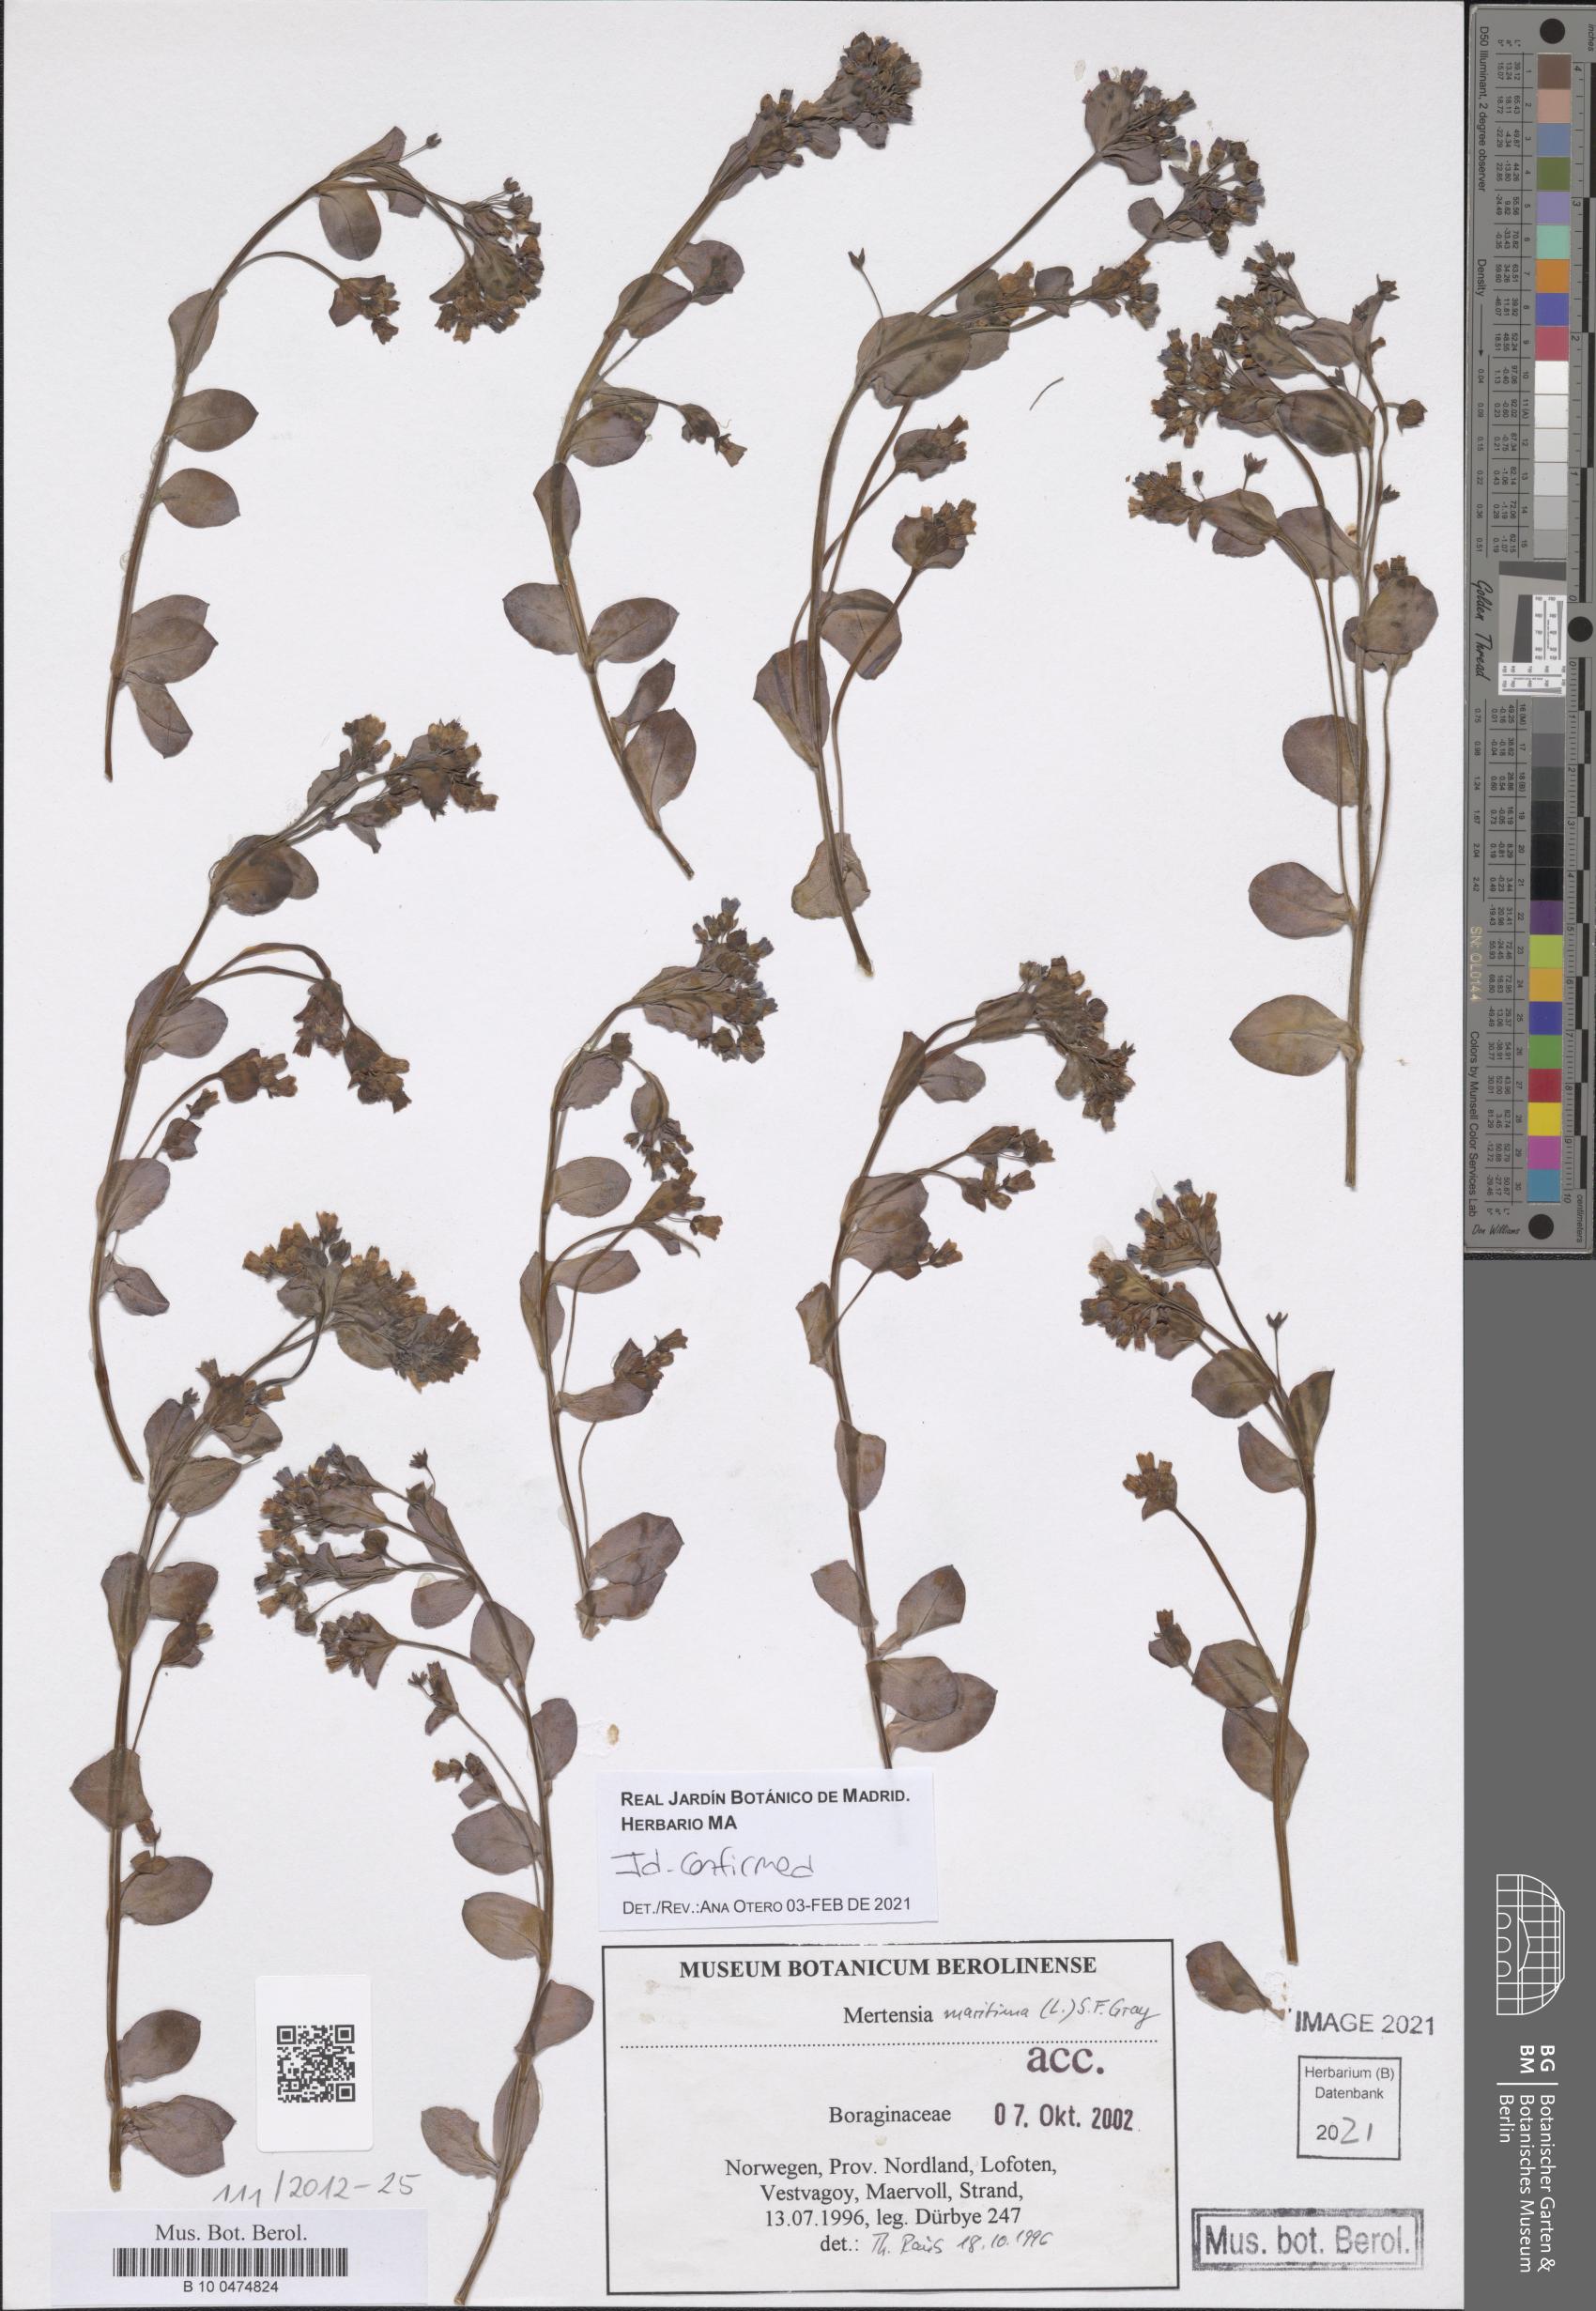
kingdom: Plantae
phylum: Tracheophyta
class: Magnoliopsida
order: Boraginales
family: Boraginaceae
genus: Mertensia
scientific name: Mertensia maritima
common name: Oysterplant
